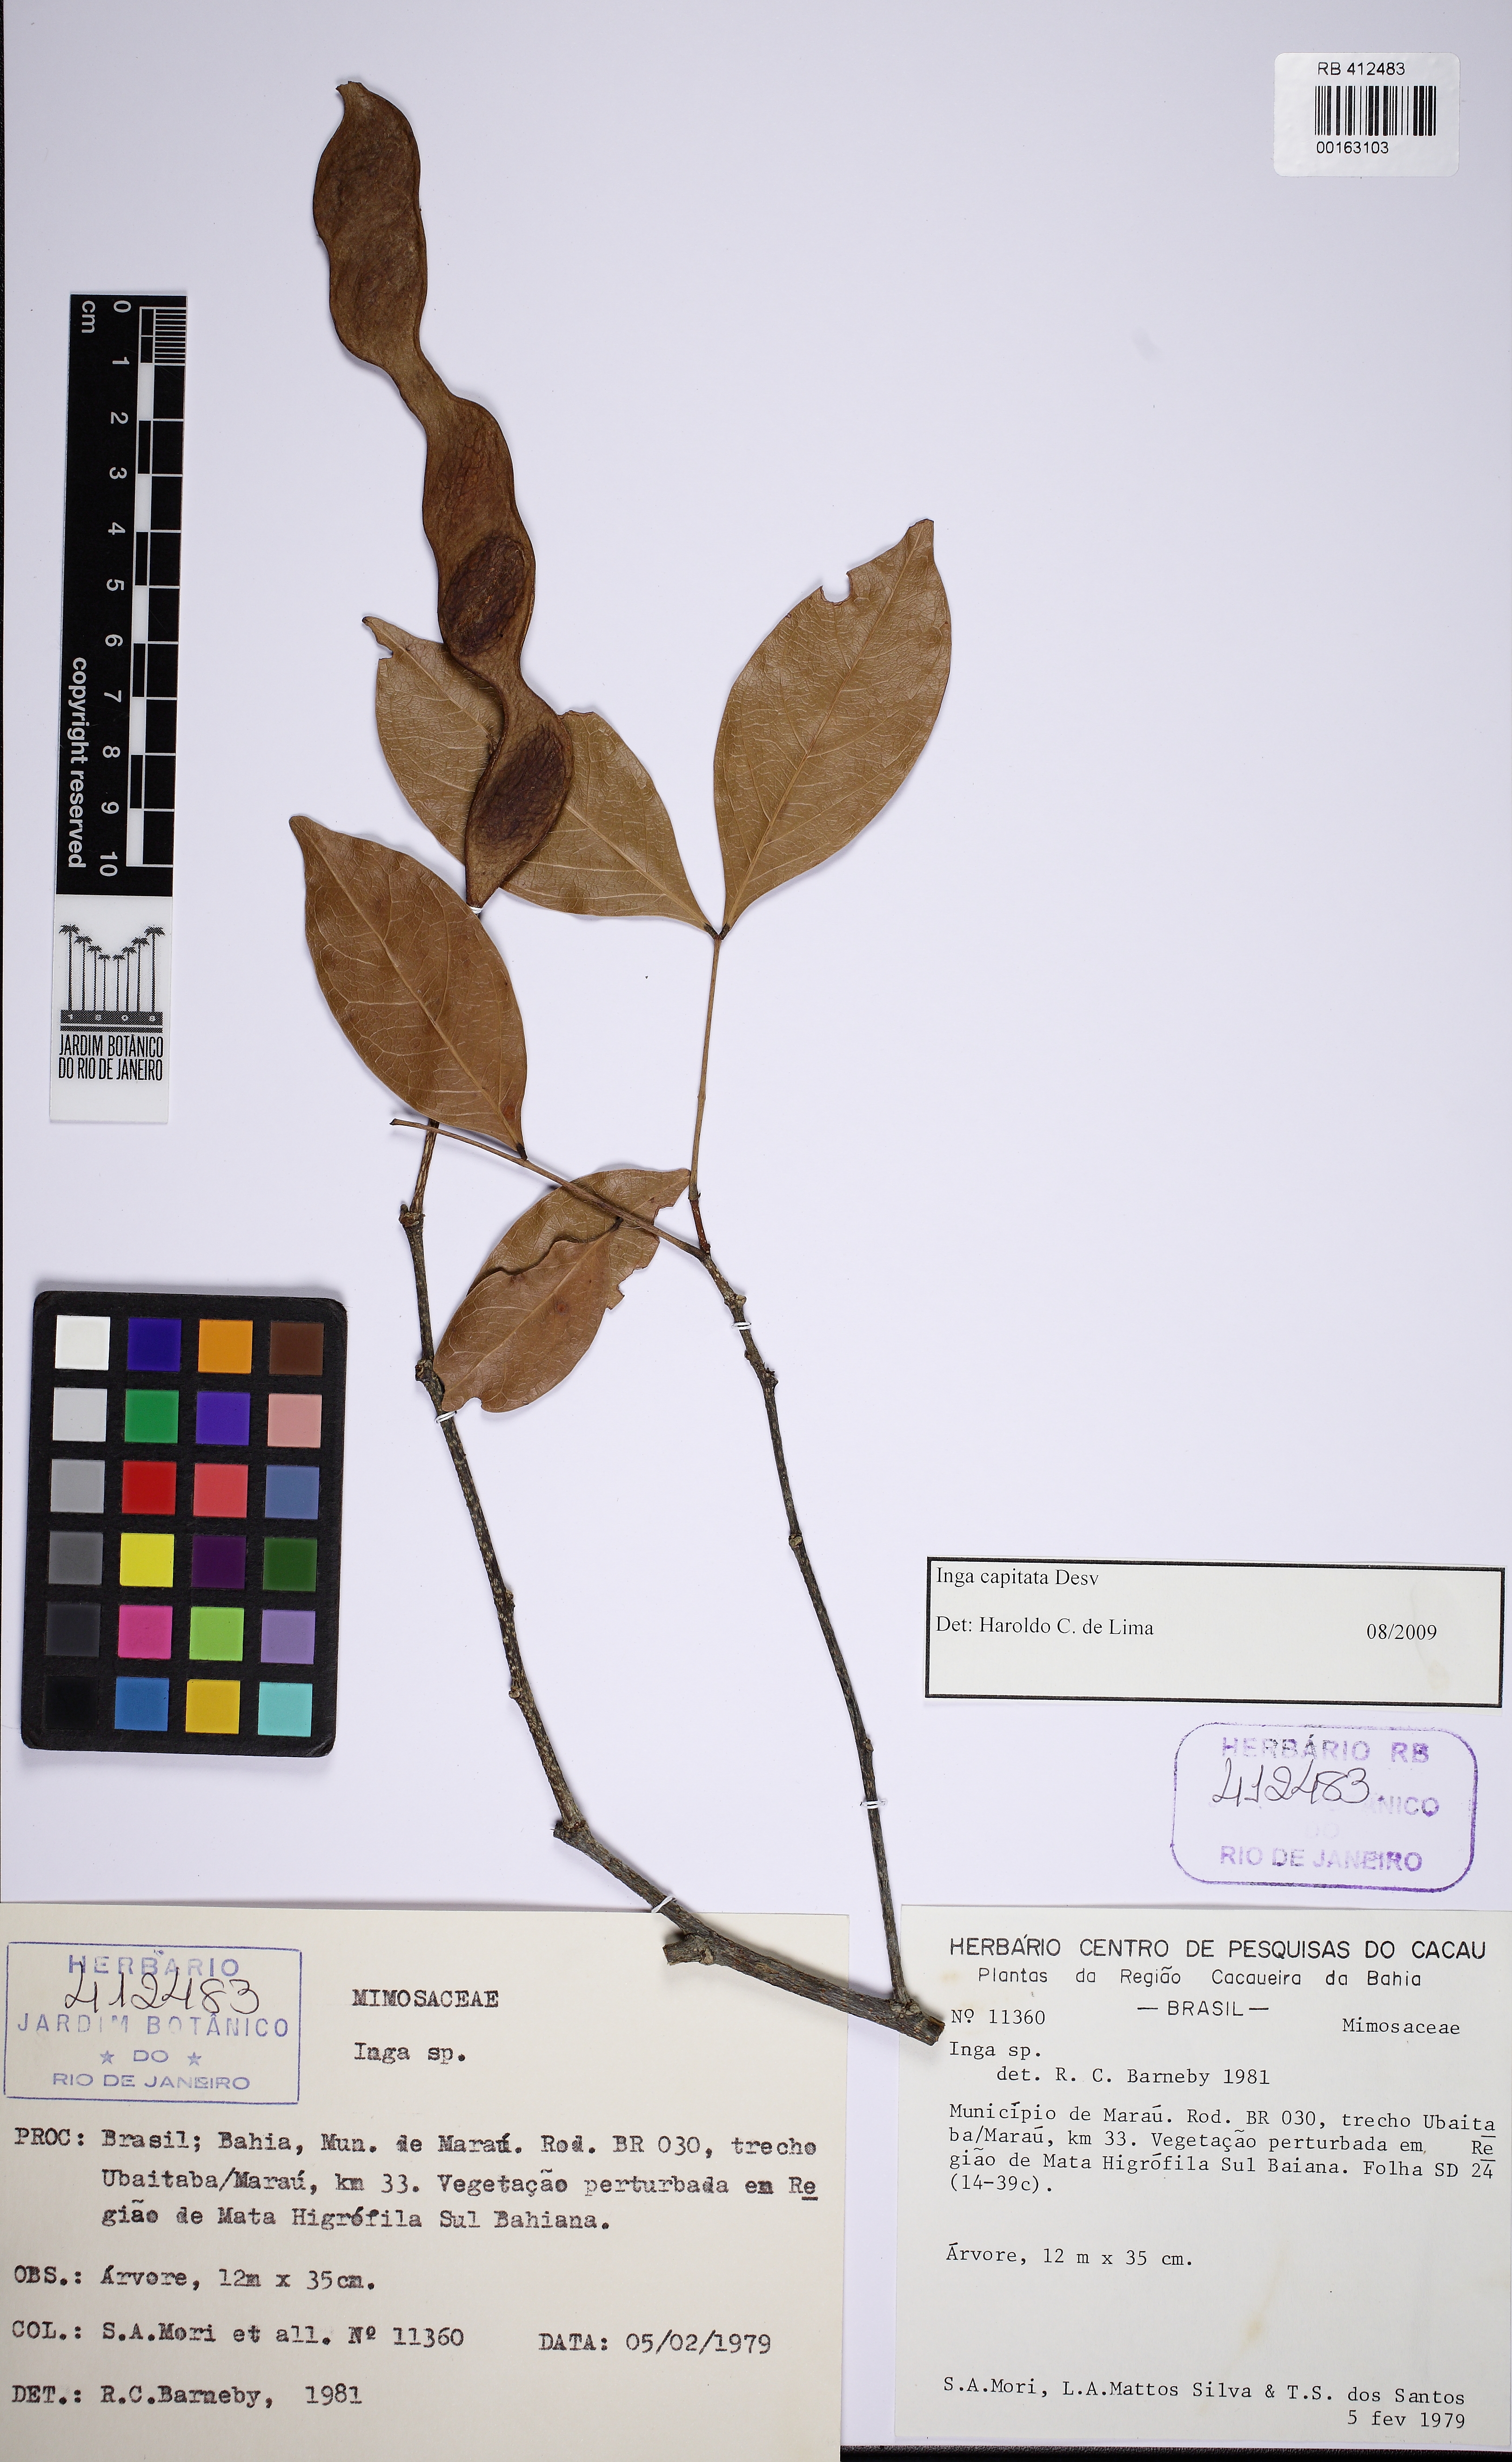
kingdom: Plantae
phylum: Tracheophyta
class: Magnoliopsida
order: Fabales
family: Fabaceae
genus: Inga
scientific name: Inga capitata
